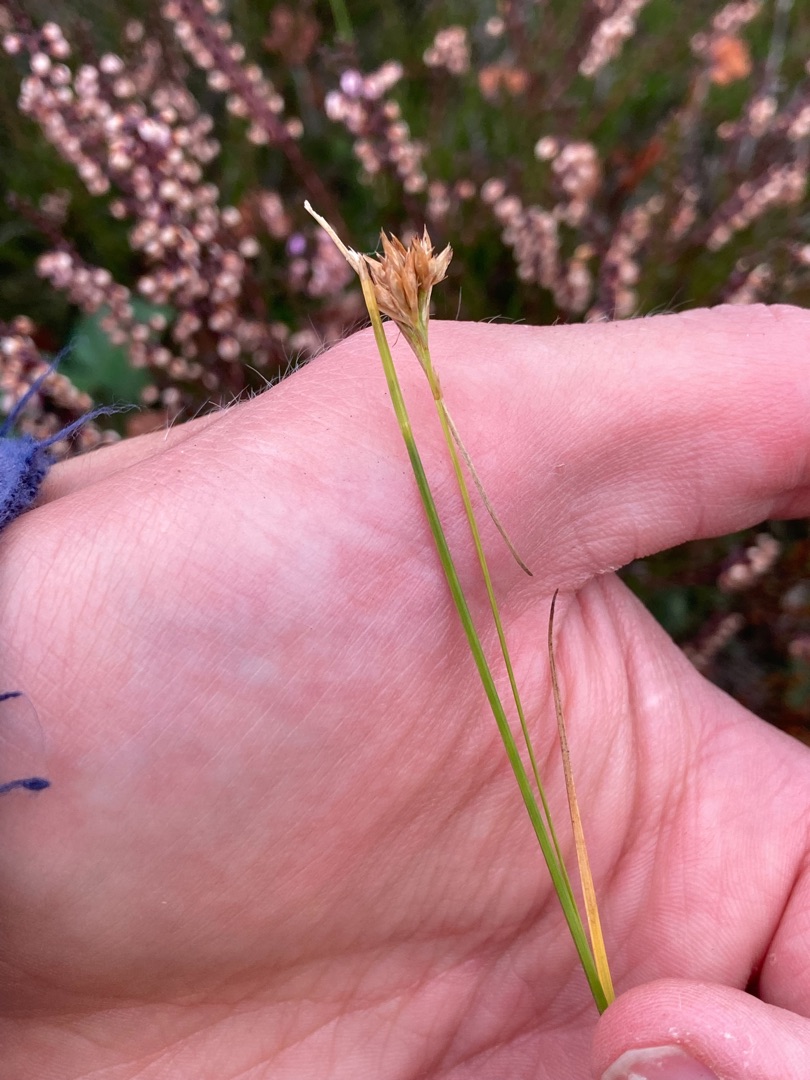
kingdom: Plantae
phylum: Tracheophyta
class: Liliopsida
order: Poales
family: Cyperaceae
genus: Rhynchospora
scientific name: Rhynchospora alba
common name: Hvid næbfrø
